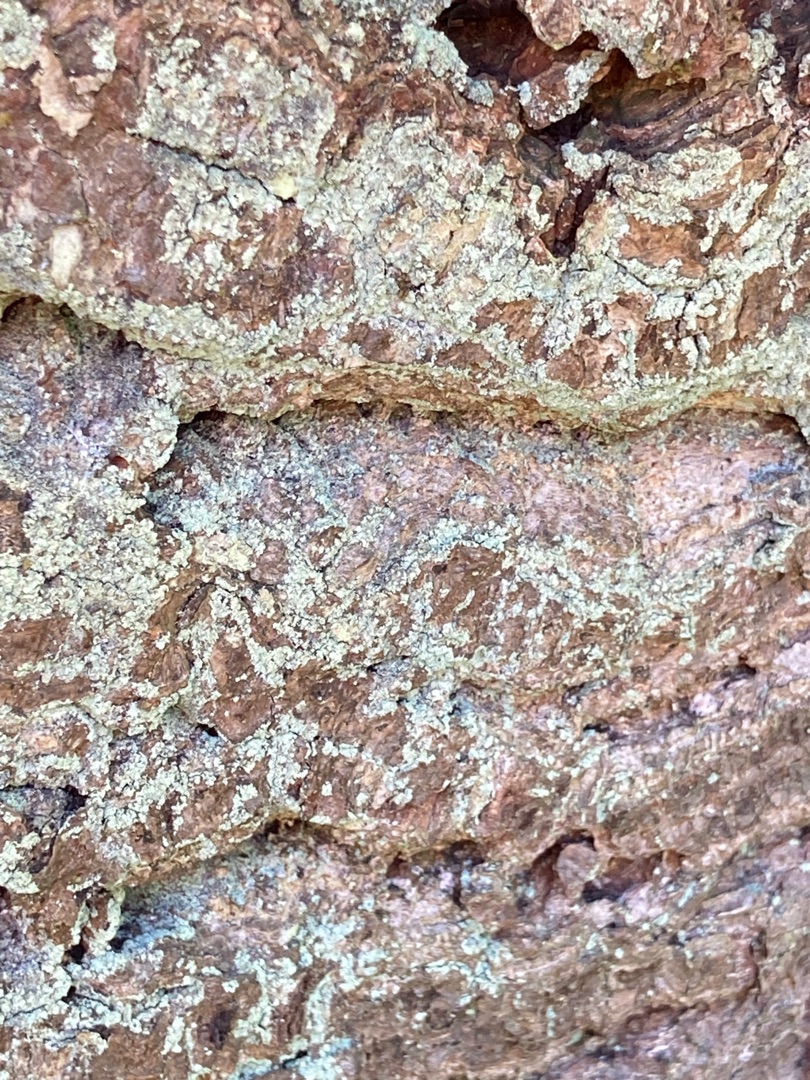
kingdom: Fungi
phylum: Ascomycota
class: Lecanoromycetes
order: Lecanorales
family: Stereocaulaceae
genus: Lepraria
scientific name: Lepraria incana
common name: Almindelig støvlav
